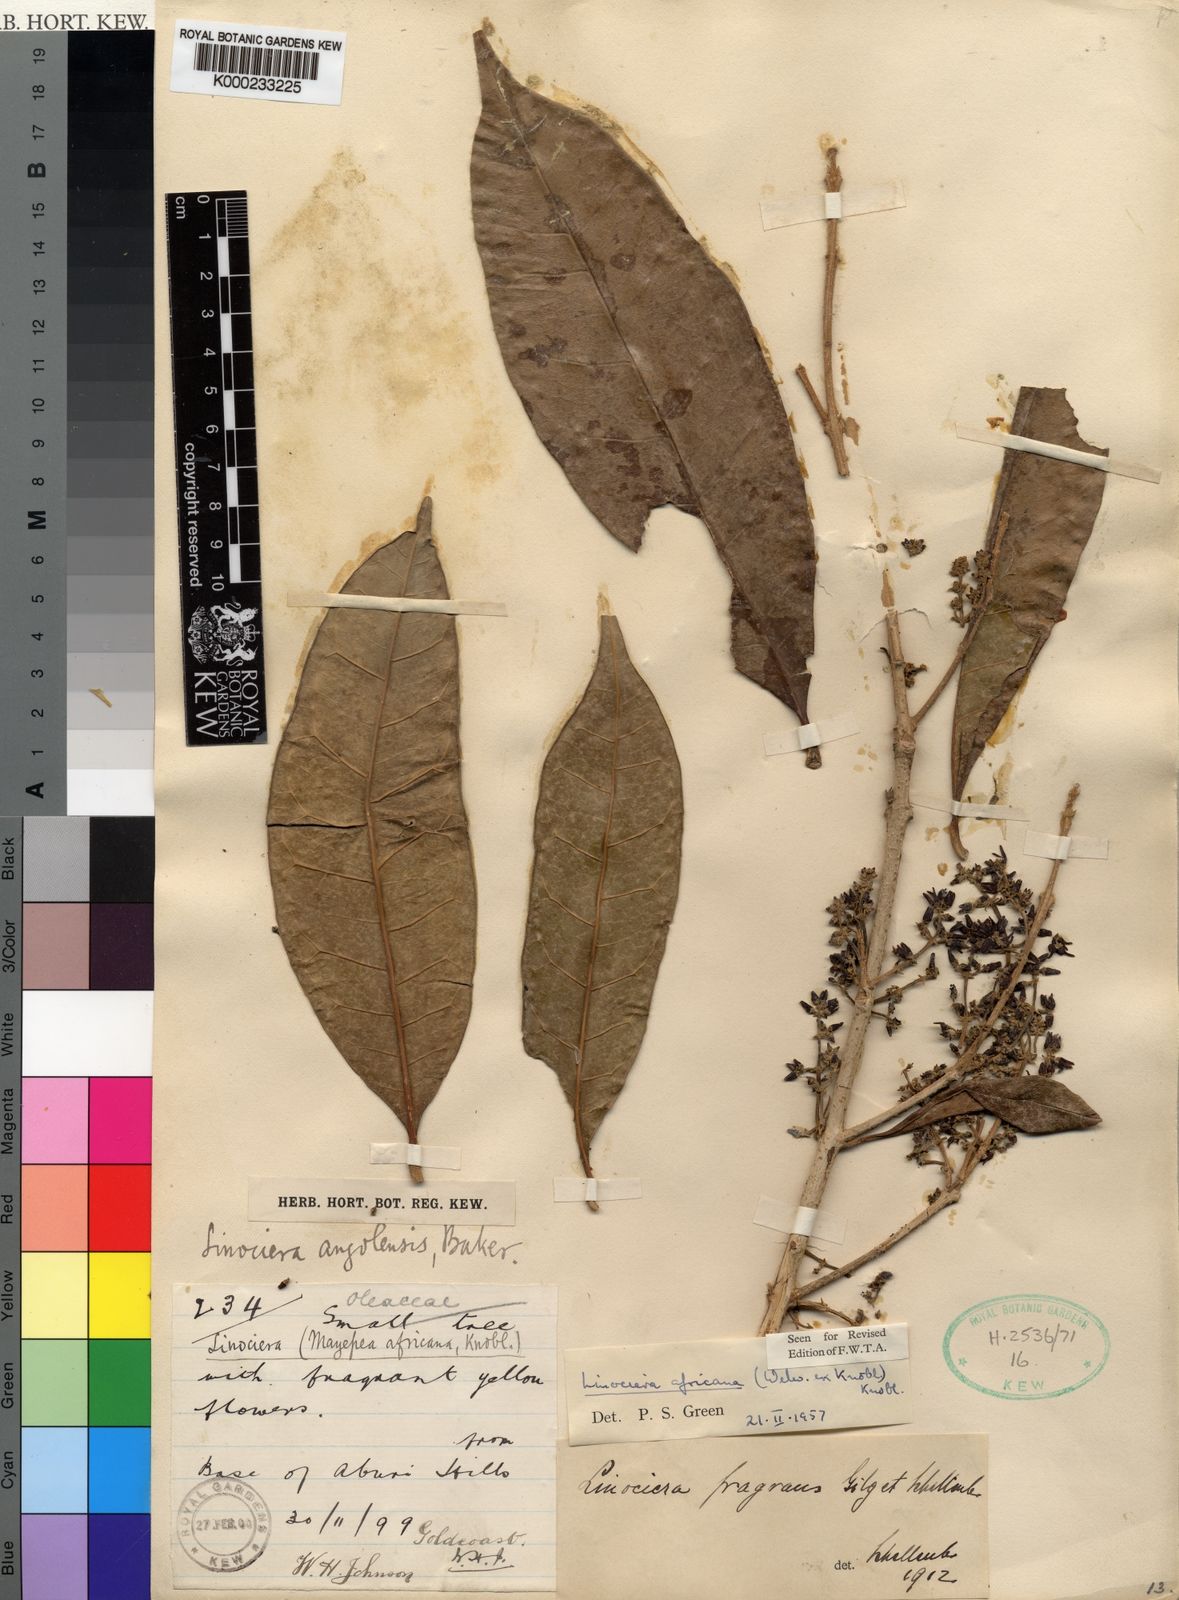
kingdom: Plantae
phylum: Tracheophyta
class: Magnoliopsida
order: Lamiales
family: Oleaceae
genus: Noronhia
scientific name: Noronhia africana
